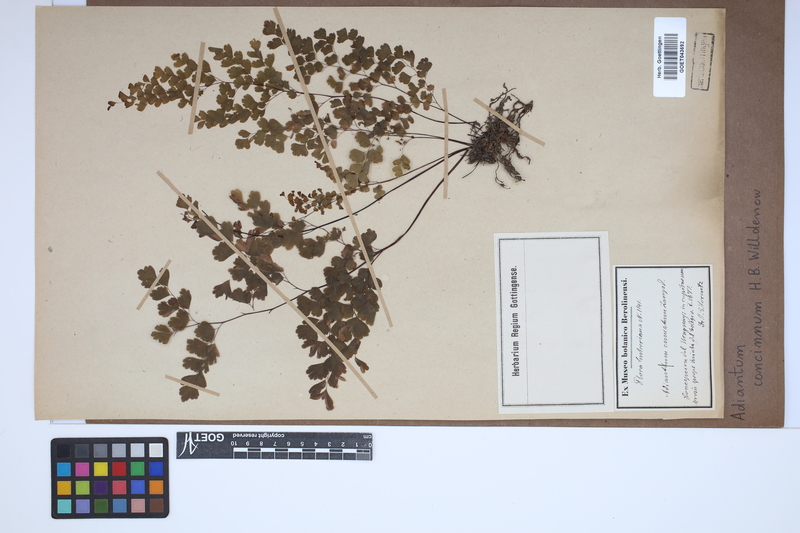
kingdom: Plantae
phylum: Tracheophyta
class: Polypodiopsida
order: Polypodiales
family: Pteridaceae
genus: Adiantum
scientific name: Adiantum concinnum
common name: Brittle maidenhair fern
